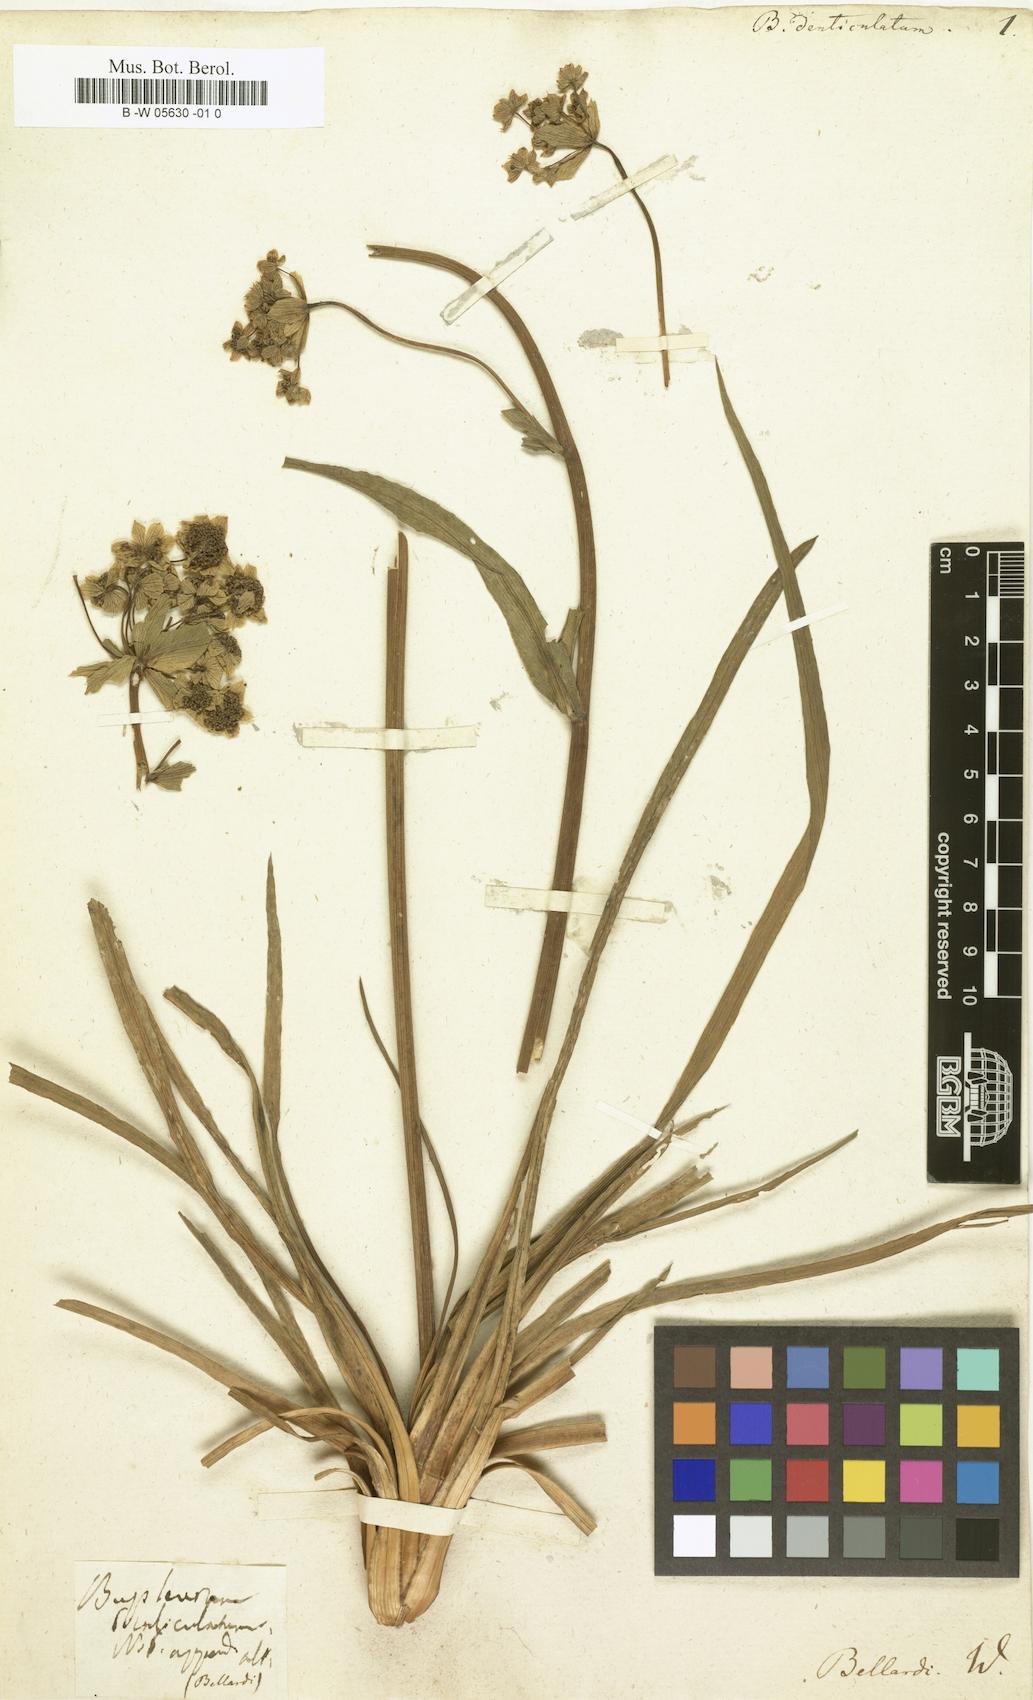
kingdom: Plantae
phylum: Tracheophyta
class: Magnoliopsida
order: Apiales
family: Apiaceae
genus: Bupleurum
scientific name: Bupleurum petraeum
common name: Rock hare's-ear
